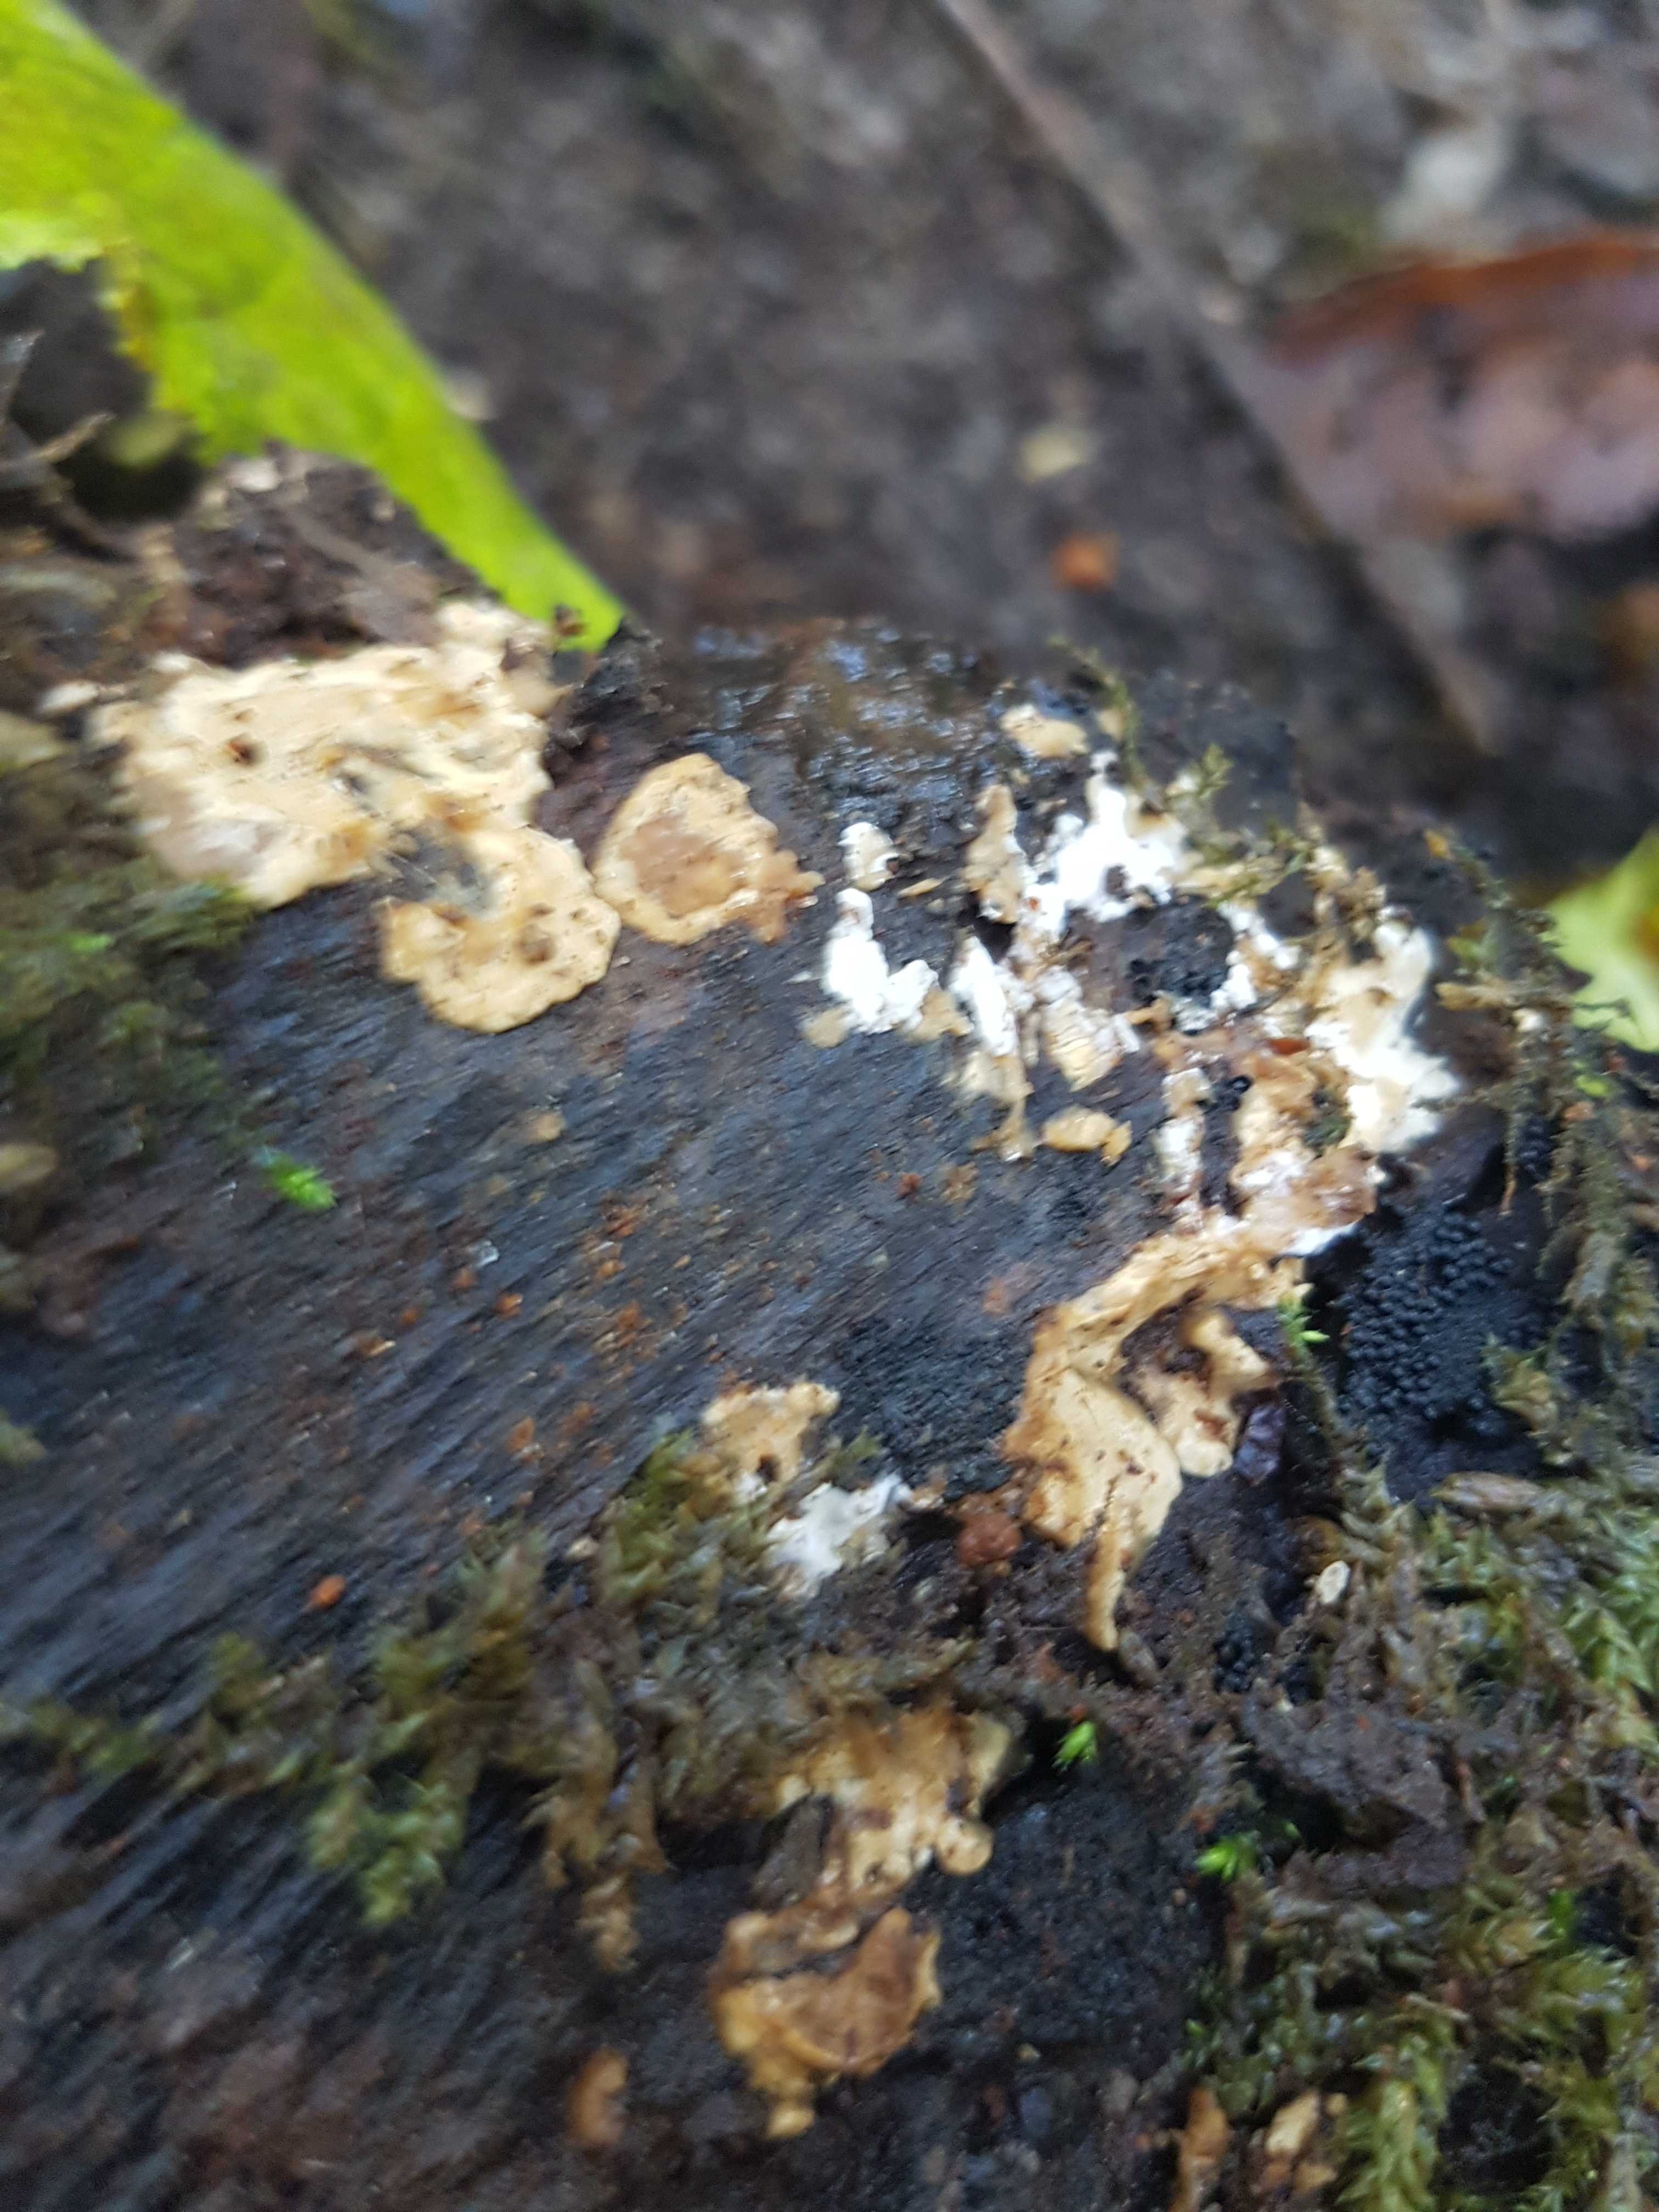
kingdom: Fungi
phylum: Basidiomycota
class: Agaricomycetes
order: Polyporales
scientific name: Polyporales
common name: poresvampordenen
